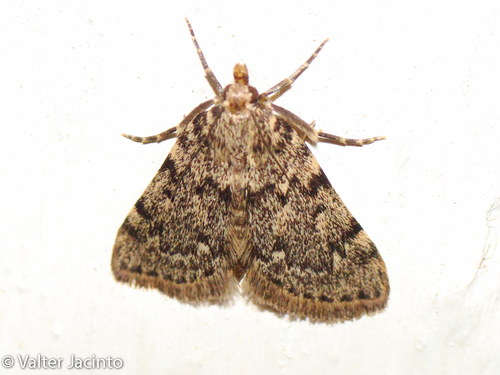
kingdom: Animalia
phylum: Arthropoda
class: Insecta
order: Lepidoptera
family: Pyralidae
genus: Aglossa
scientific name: Aglossa pinguinalis
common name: Large tabby
